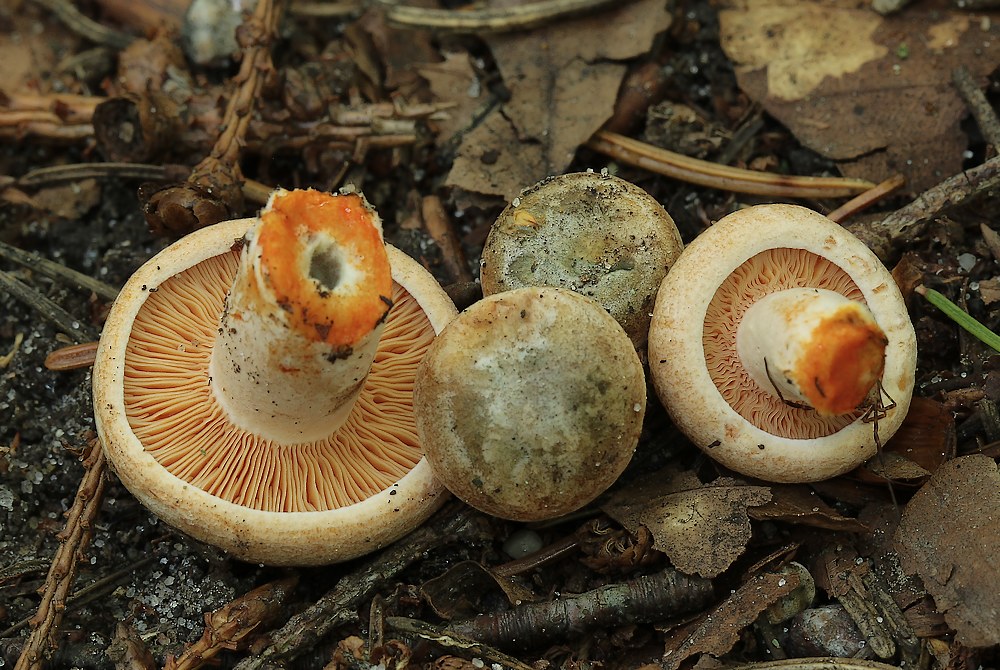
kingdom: Fungi
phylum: Basidiomycota
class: Agaricomycetes
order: Russulales
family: Russulaceae
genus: Lactarius
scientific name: Lactarius deliciosus
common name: velsmagende mælkehat
